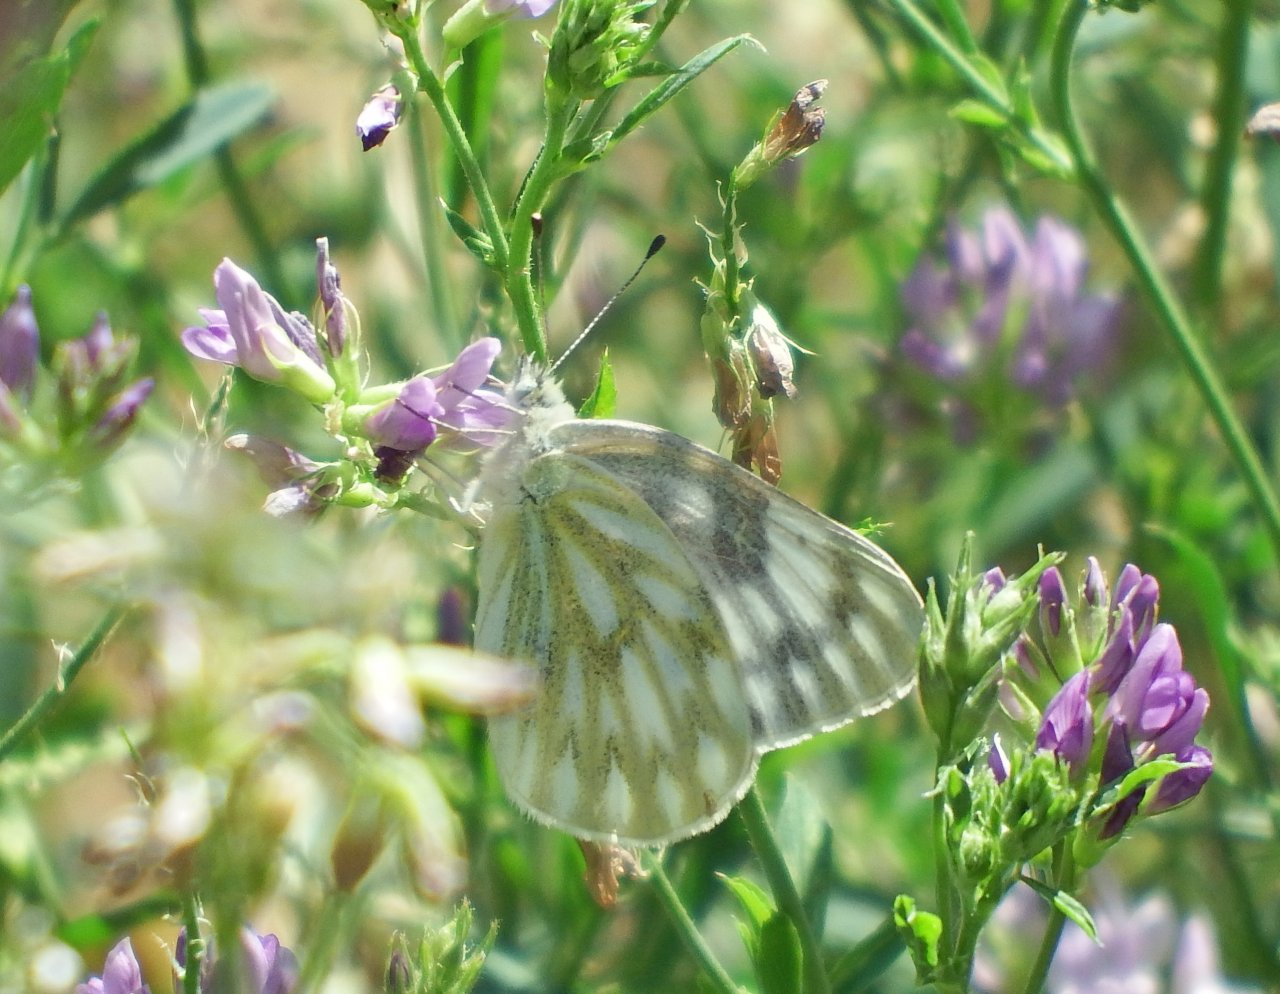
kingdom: Animalia
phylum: Arthropoda
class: Insecta
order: Lepidoptera
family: Pieridae
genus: Pontia
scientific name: Pontia occidentalis
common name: Western White
